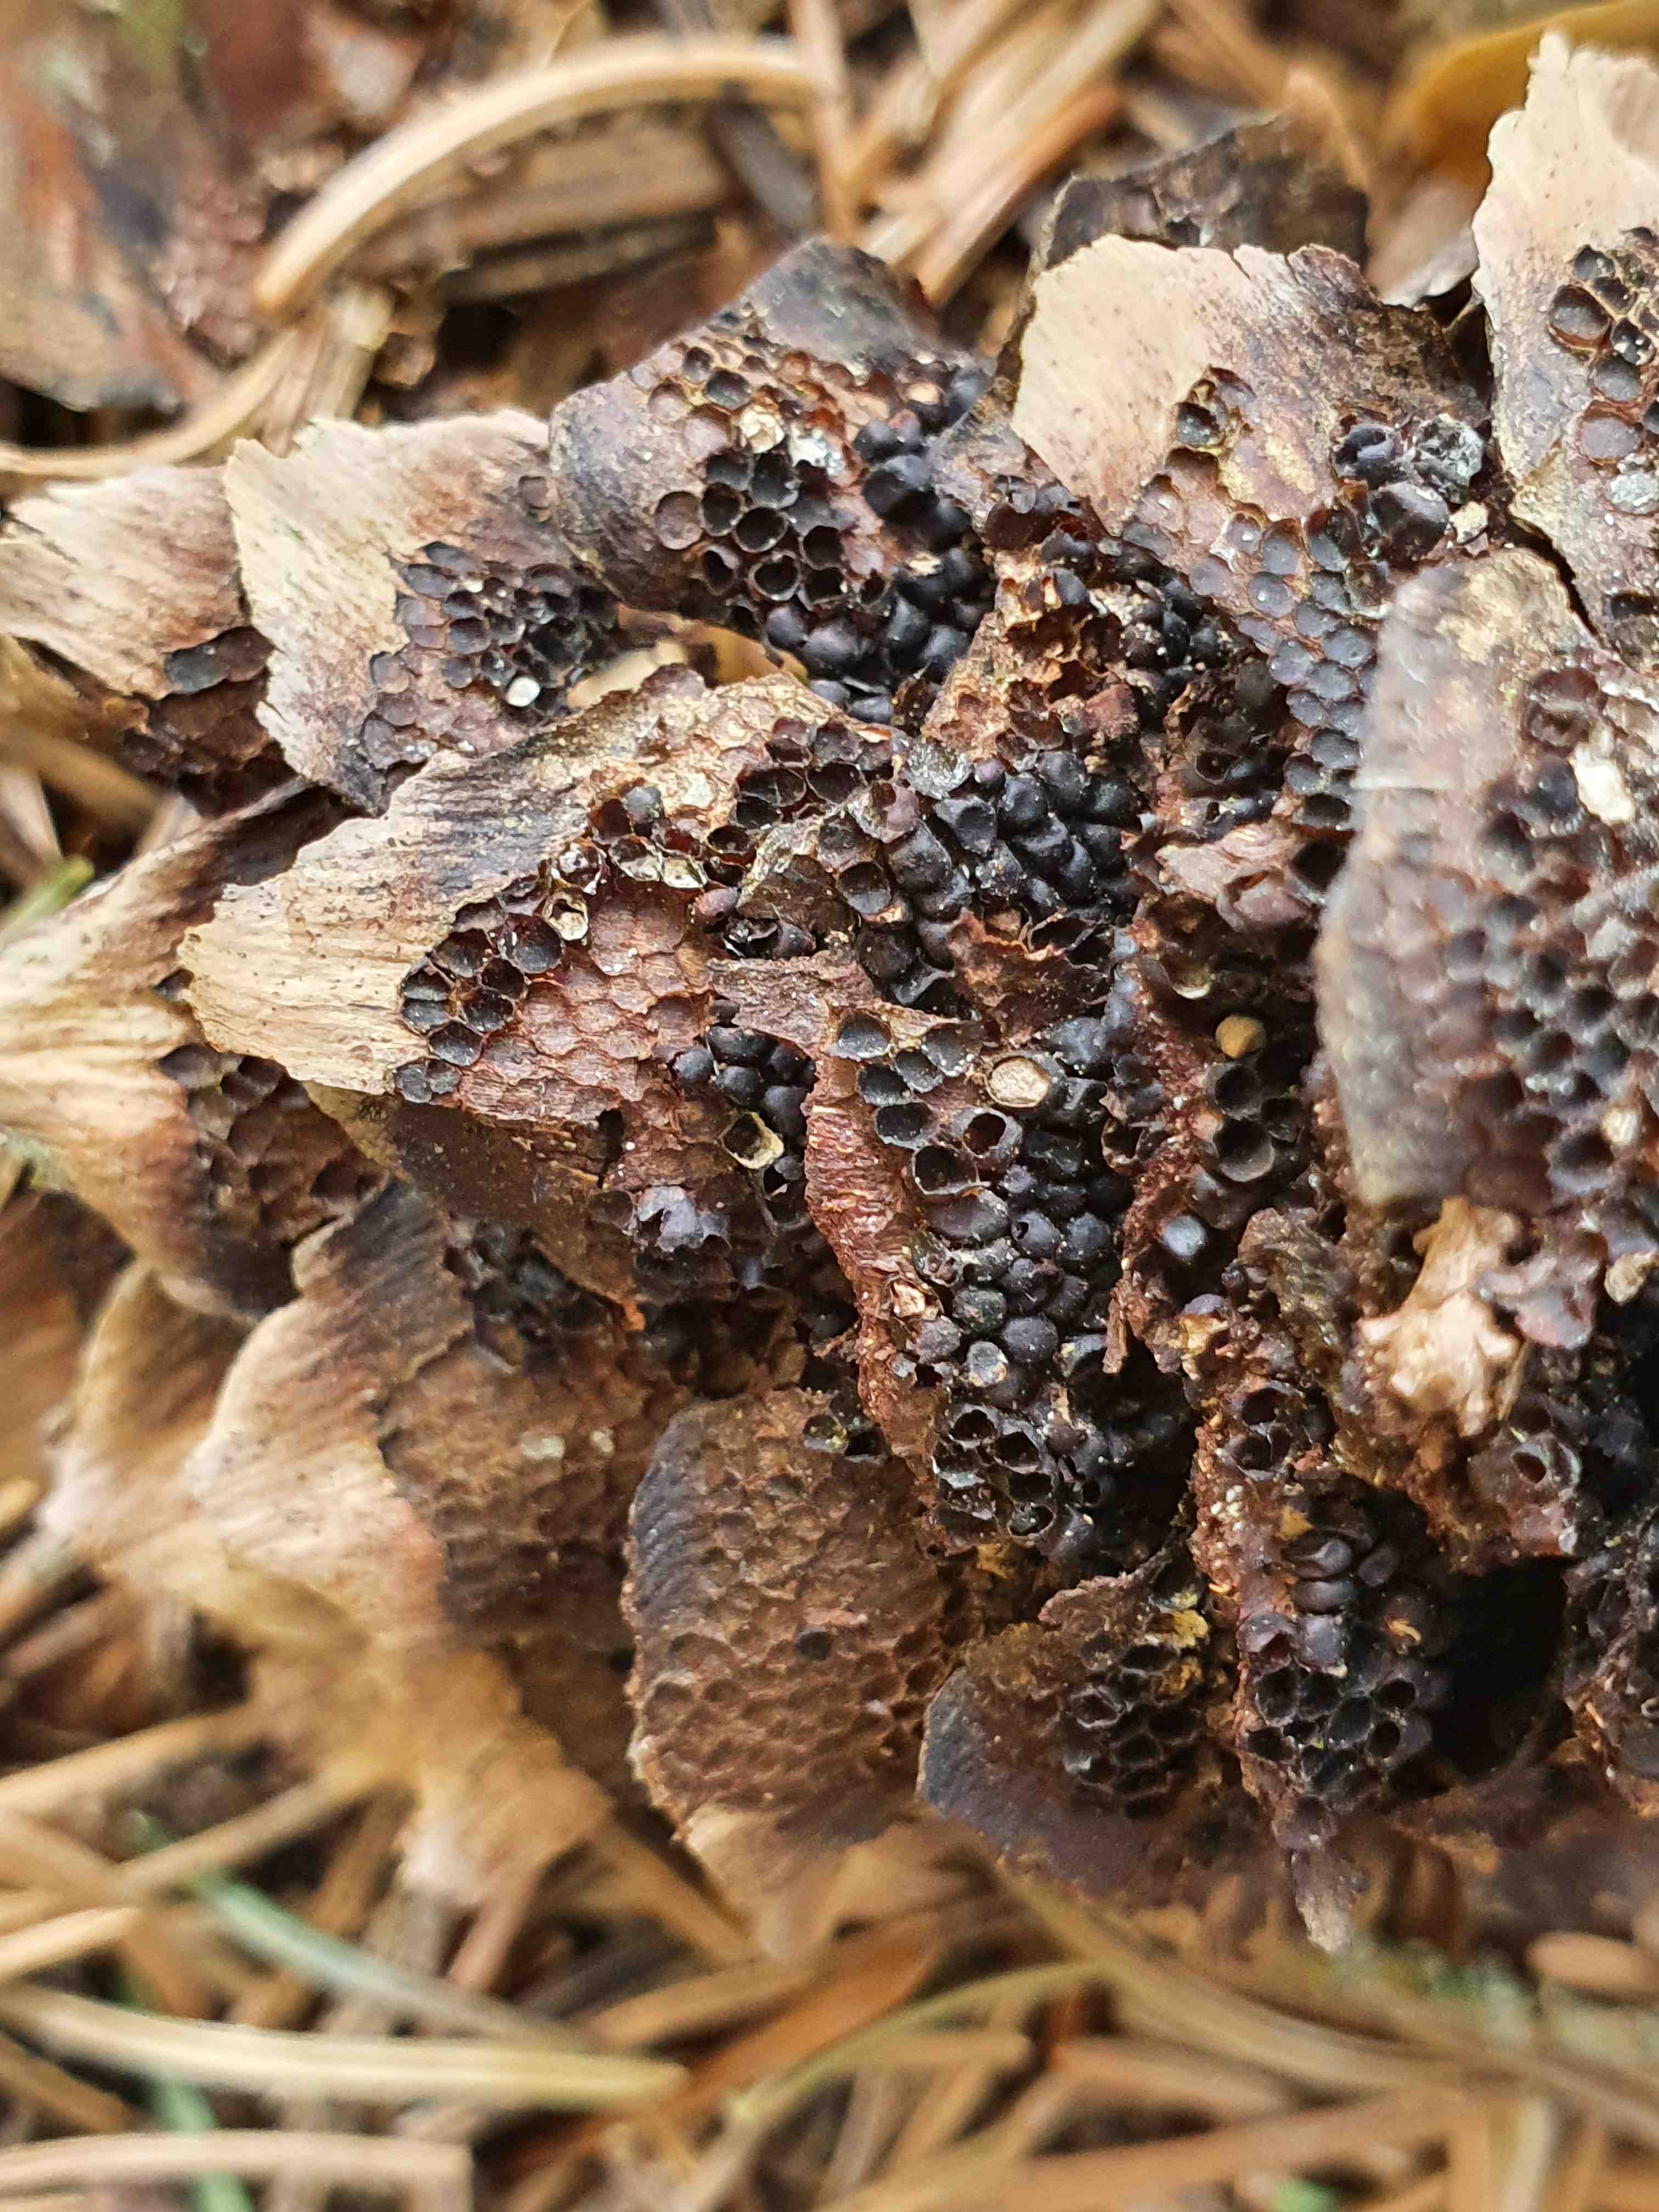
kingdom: Fungi
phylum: Basidiomycota
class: Pucciniomycetes
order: Pucciniales
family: Pucciniastraceae
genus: Thekopsora
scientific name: Thekopsora areolata
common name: grankogle-nålerust
